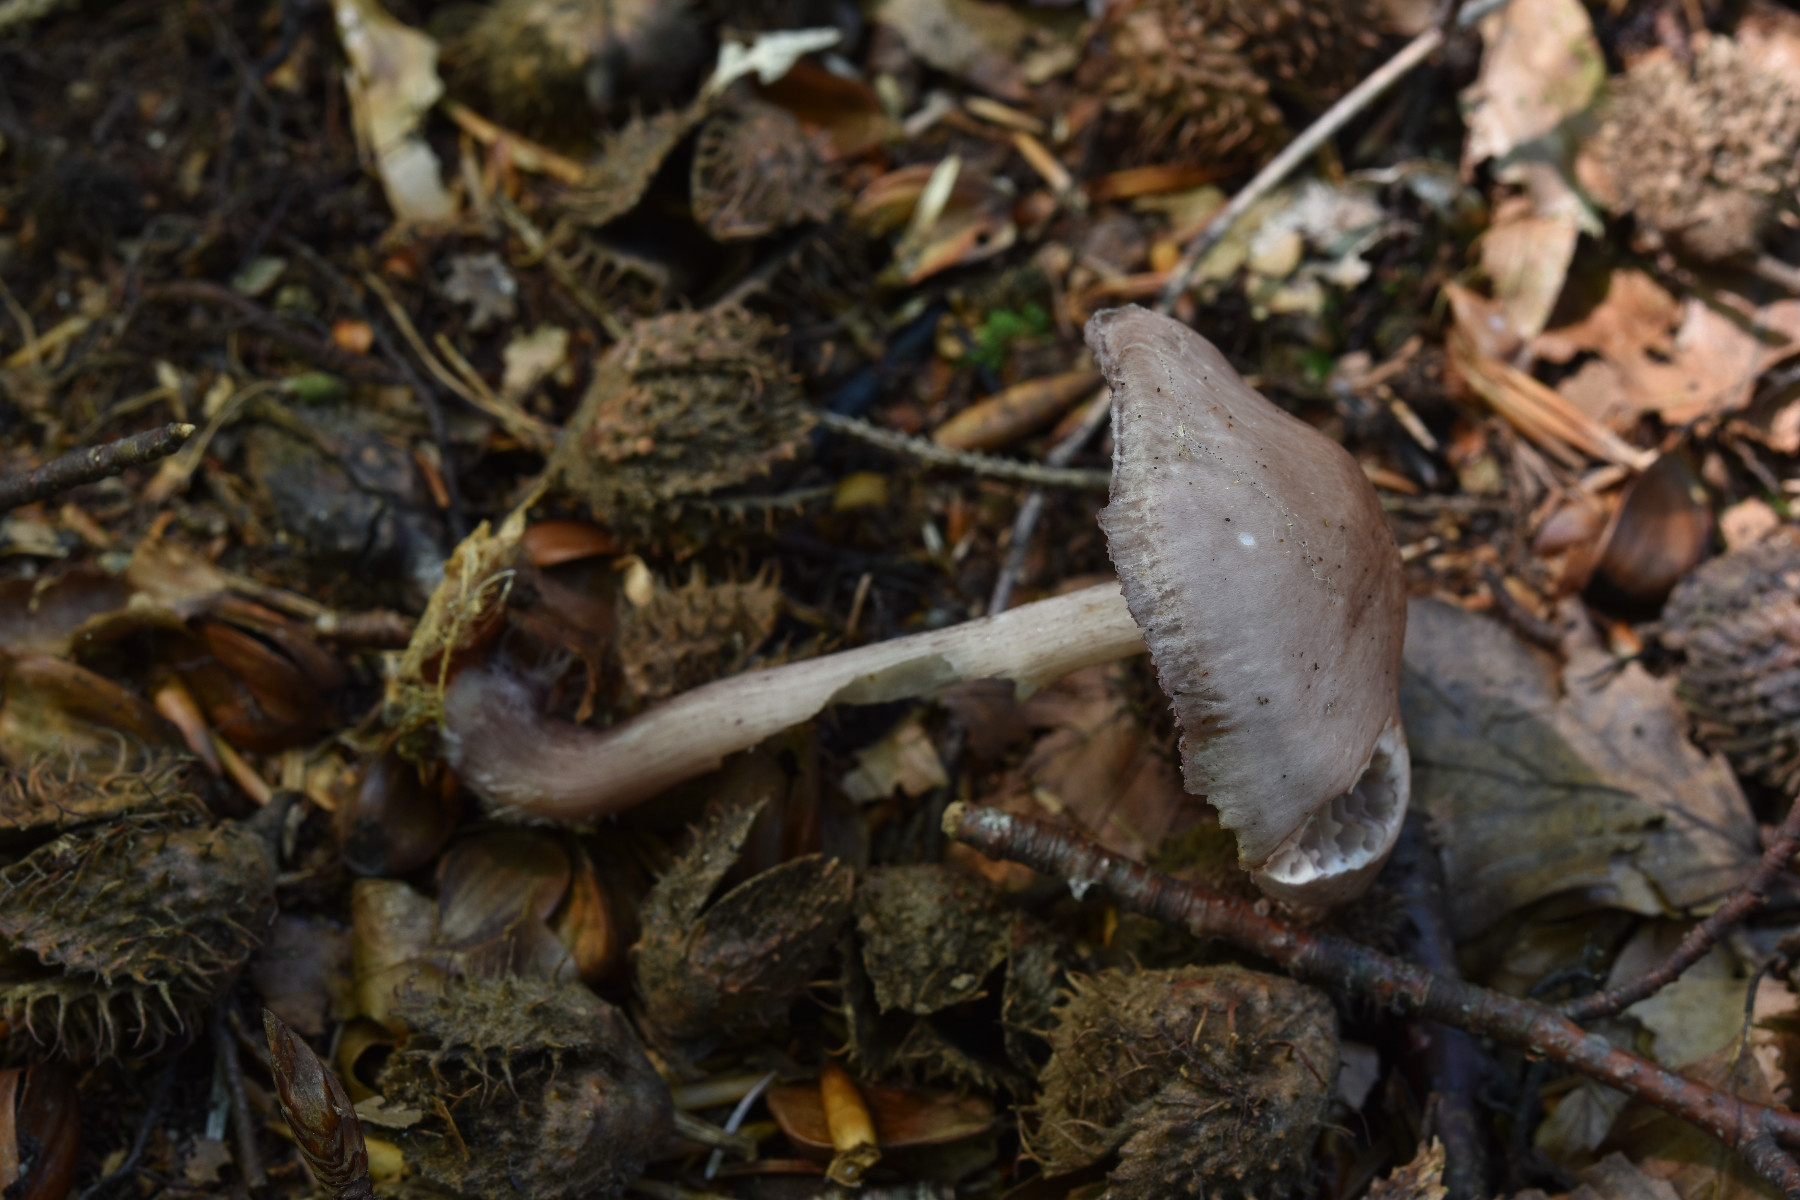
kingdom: Fungi
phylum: Basidiomycota
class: Agaricomycetes
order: Agaricales
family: Mycenaceae
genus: Mycena
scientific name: Mycena pelianthina
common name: mørkbladet huesvamp
